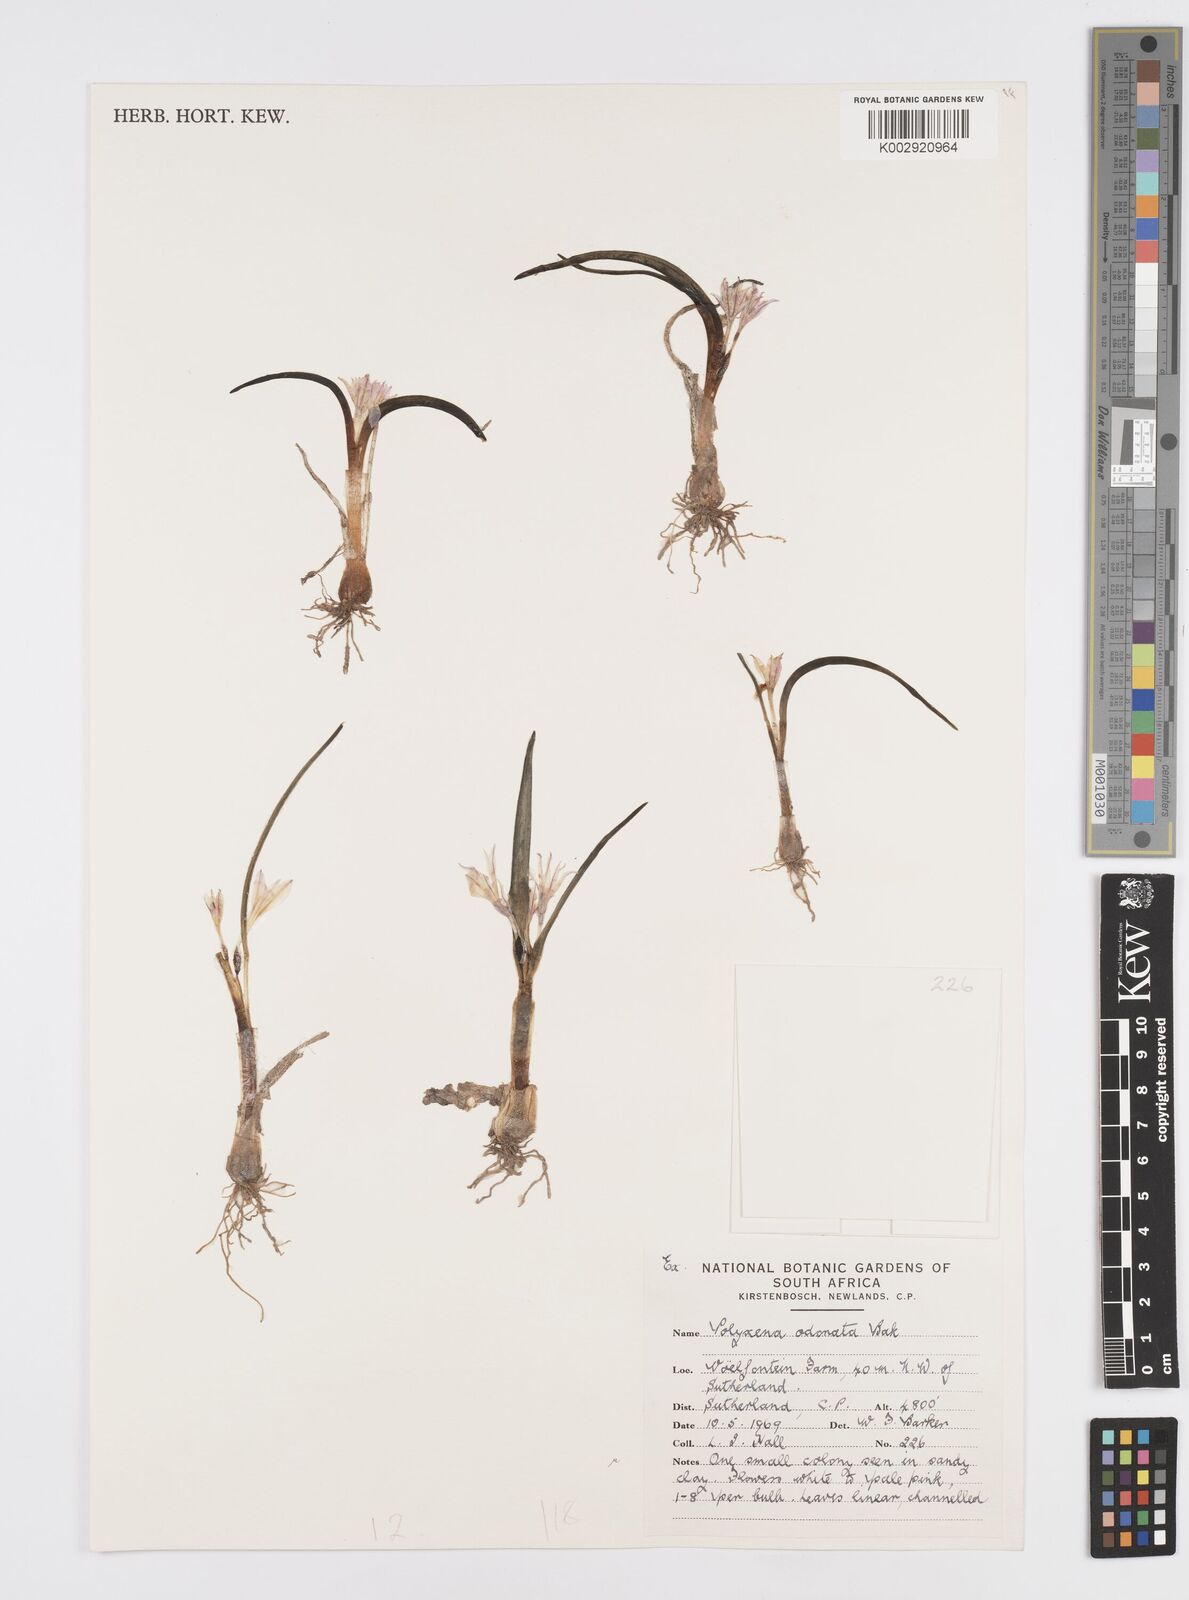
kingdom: Plantae
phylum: Tracheophyta
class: Liliopsida
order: Asparagales
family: Asparagaceae
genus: Lachenalia
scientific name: Lachenalia ensifolia
